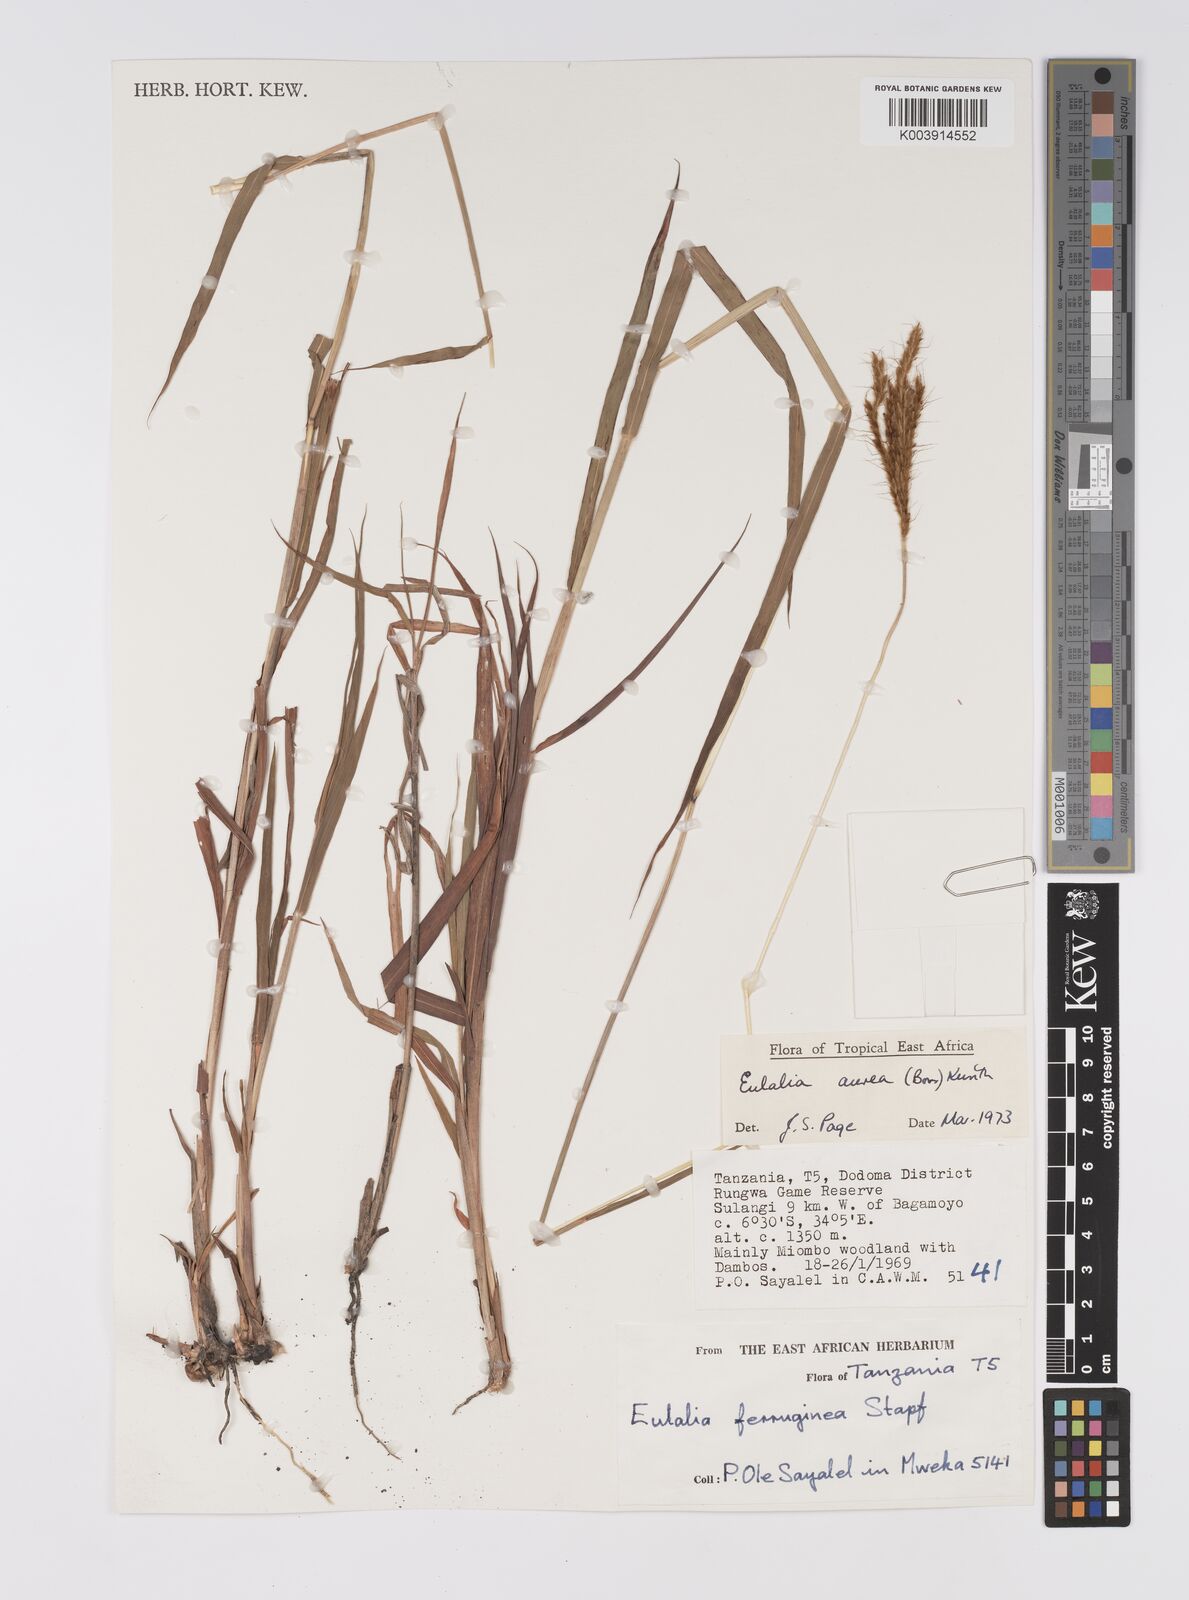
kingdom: Plantae
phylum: Tracheophyta
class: Liliopsida
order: Poales
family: Poaceae
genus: Eulalia
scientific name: Eulalia aurea
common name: Silky browntop
